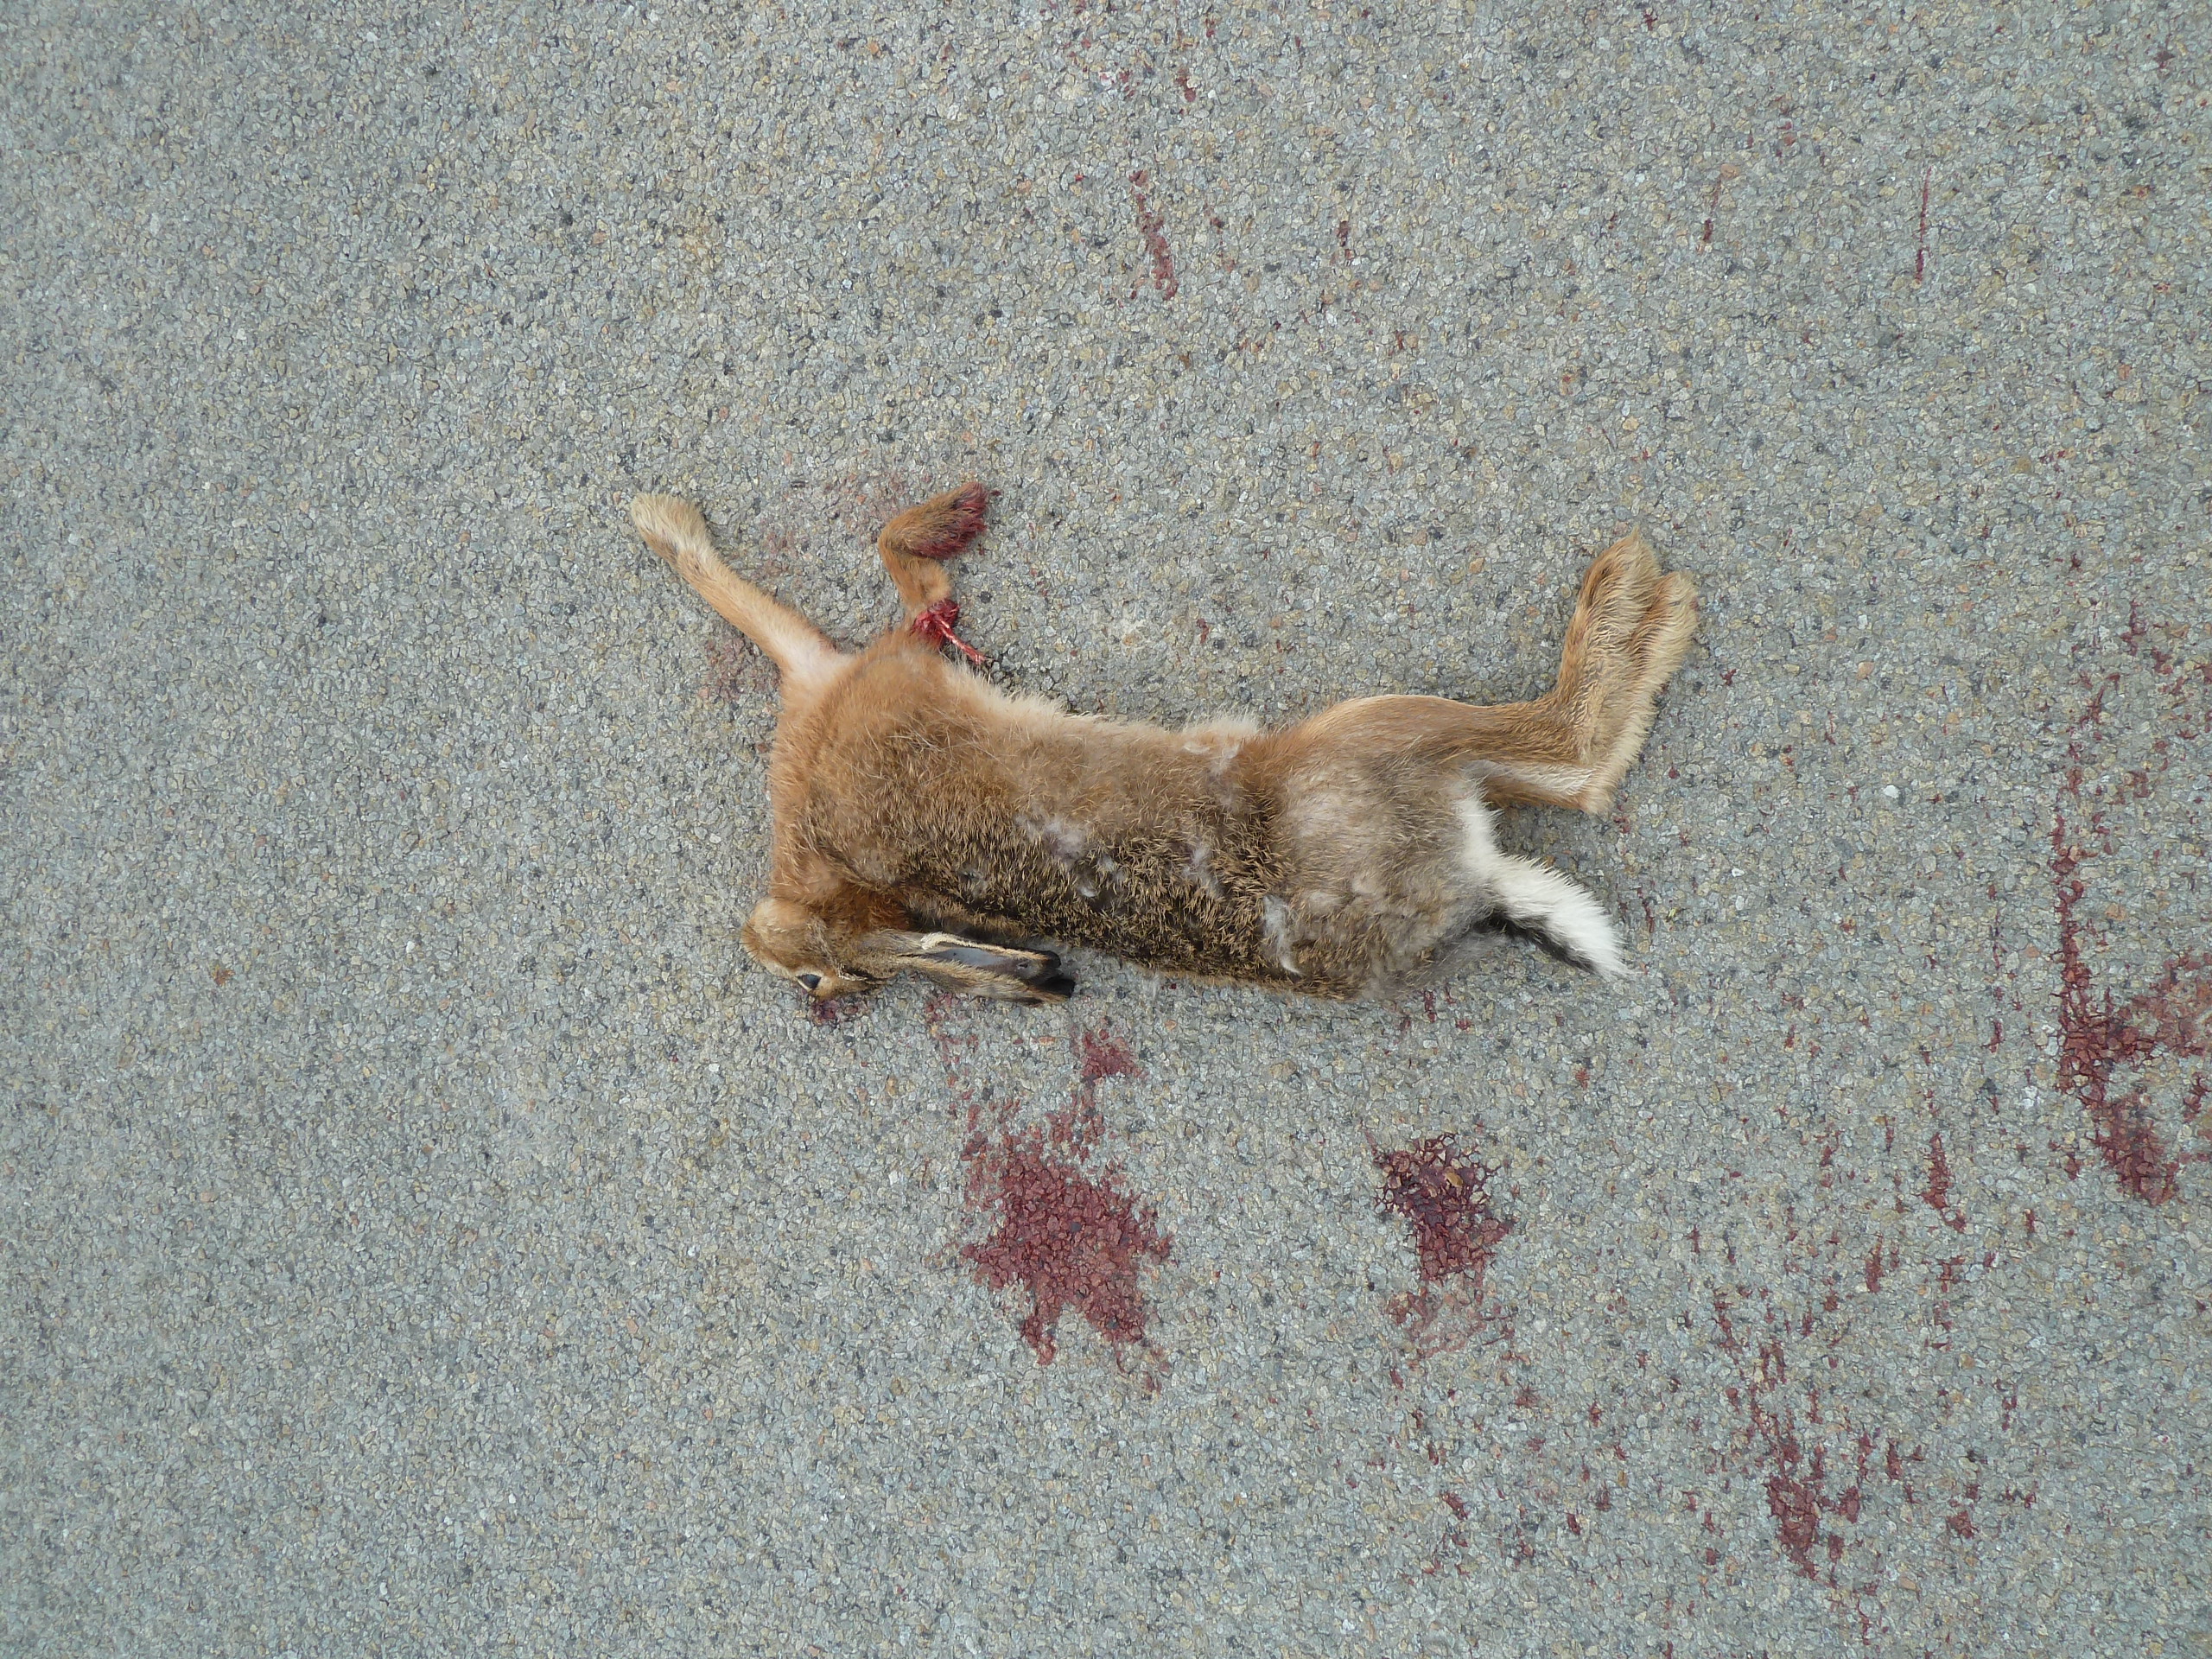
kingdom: Animalia
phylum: Chordata
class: Mammalia
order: Lagomorpha
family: Leporidae
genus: Lepus
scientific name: Lepus europaeus
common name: European hare
